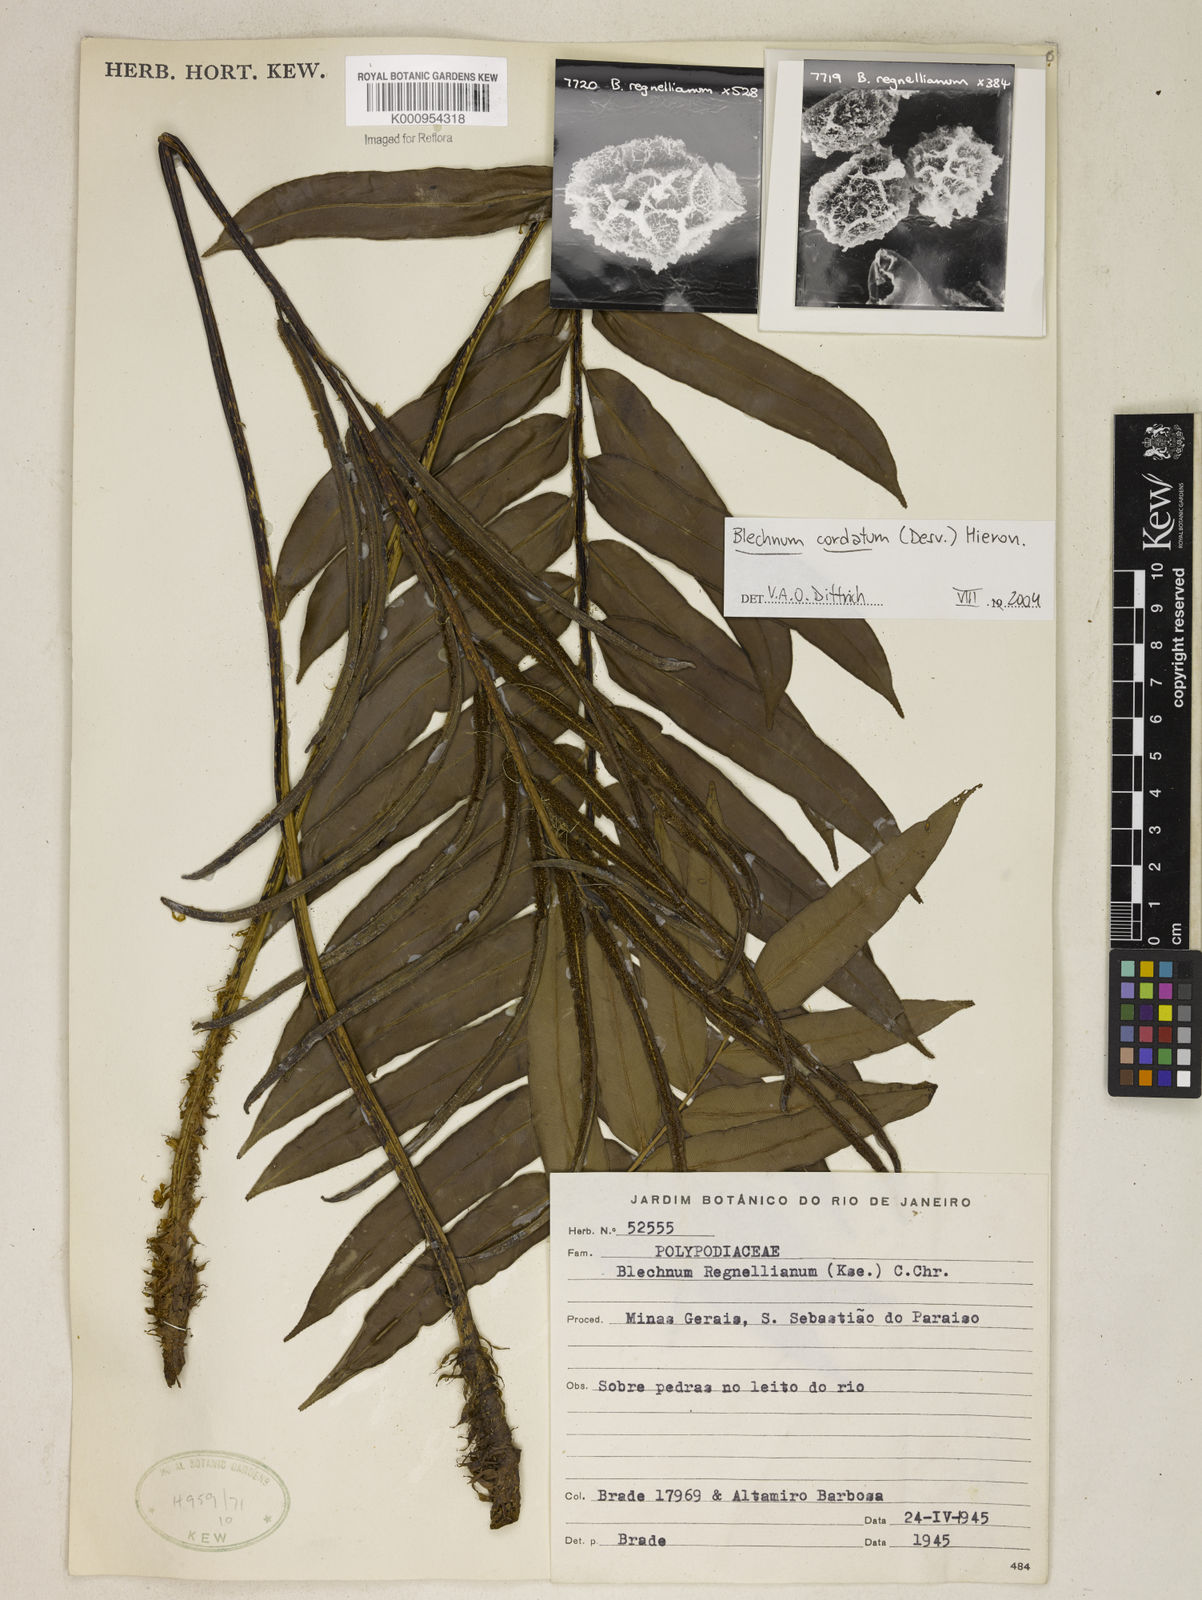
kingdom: Plantae
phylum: Tracheophyta
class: Polypodiopsida
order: Polypodiales
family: Blechnaceae
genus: Parablechnum
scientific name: Parablechnum cordatum
